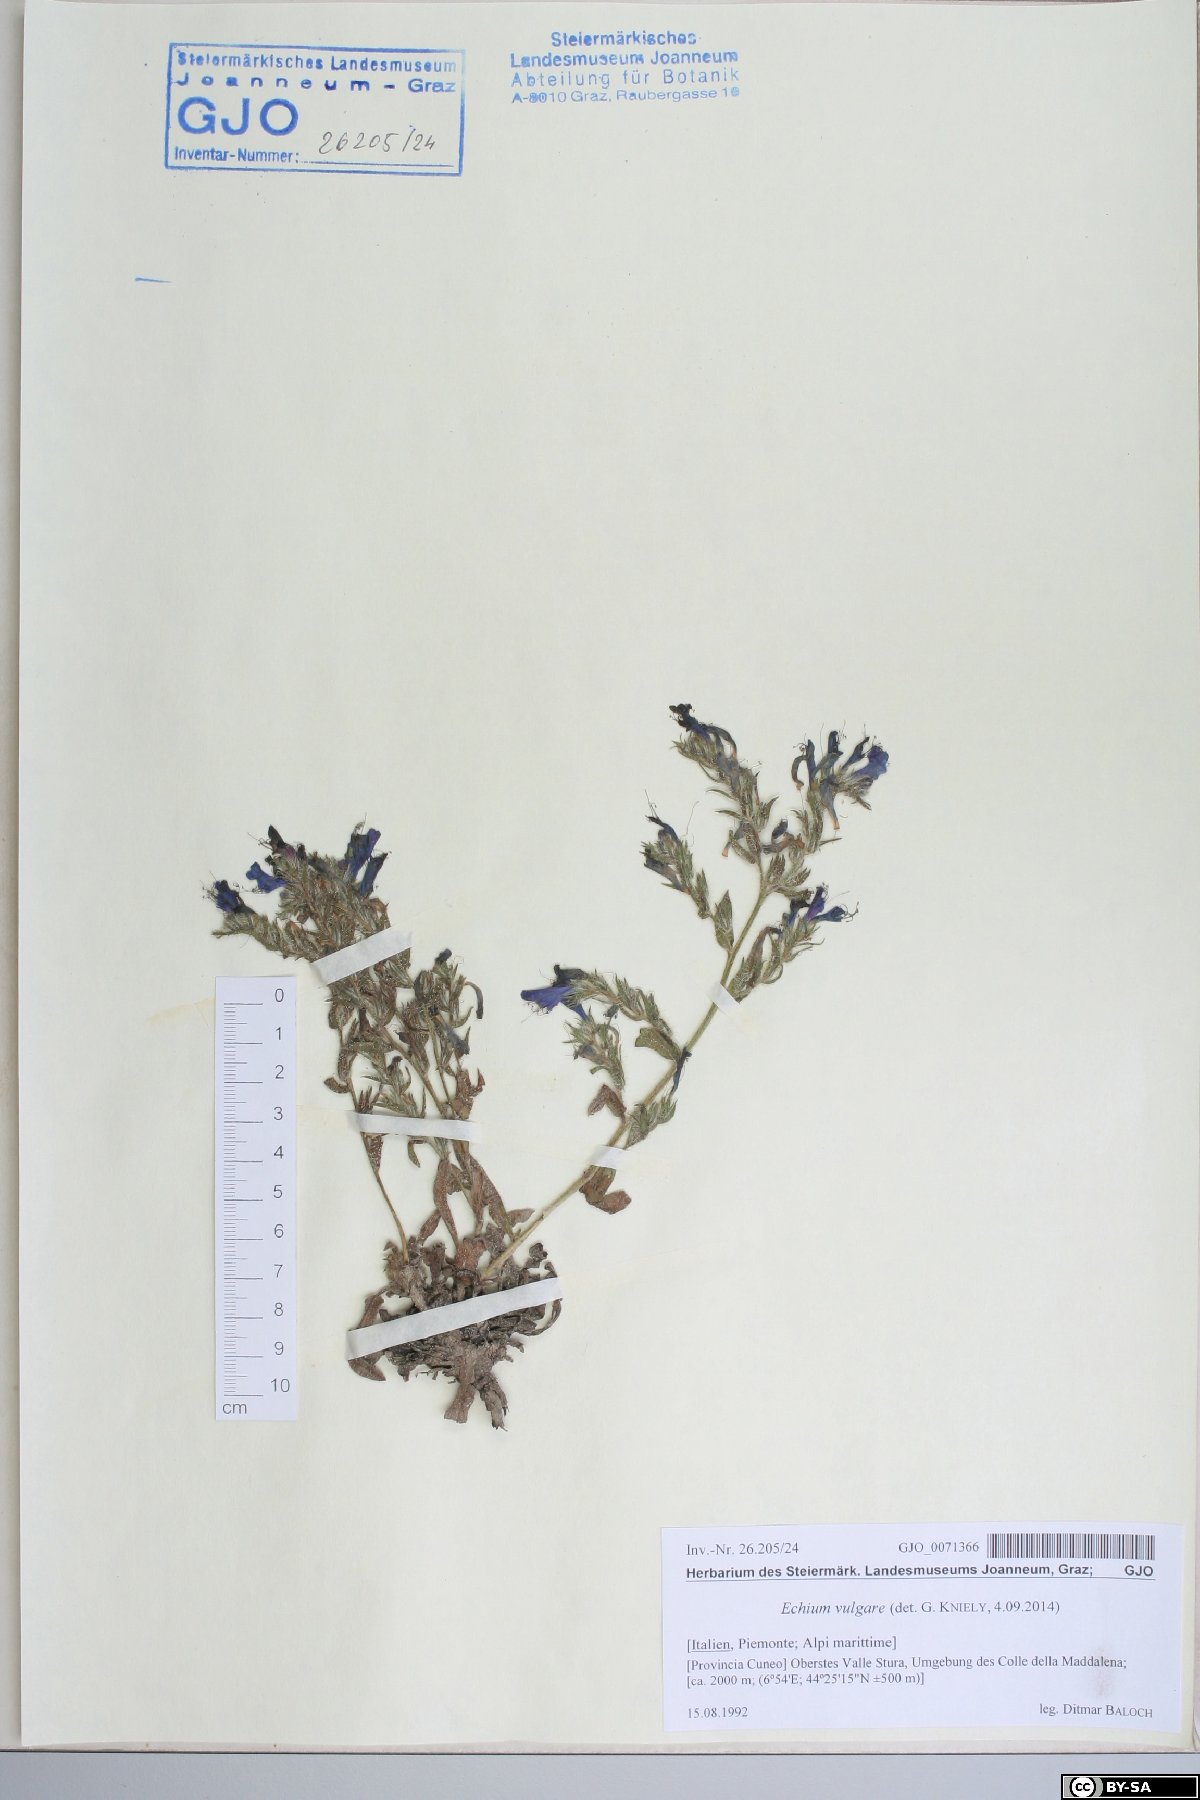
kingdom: Plantae
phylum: Tracheophyta
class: Magnoliopsida
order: Boraginales
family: Boraginaceae
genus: Echium
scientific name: Echium vulgare
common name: Common viper's bugloss
